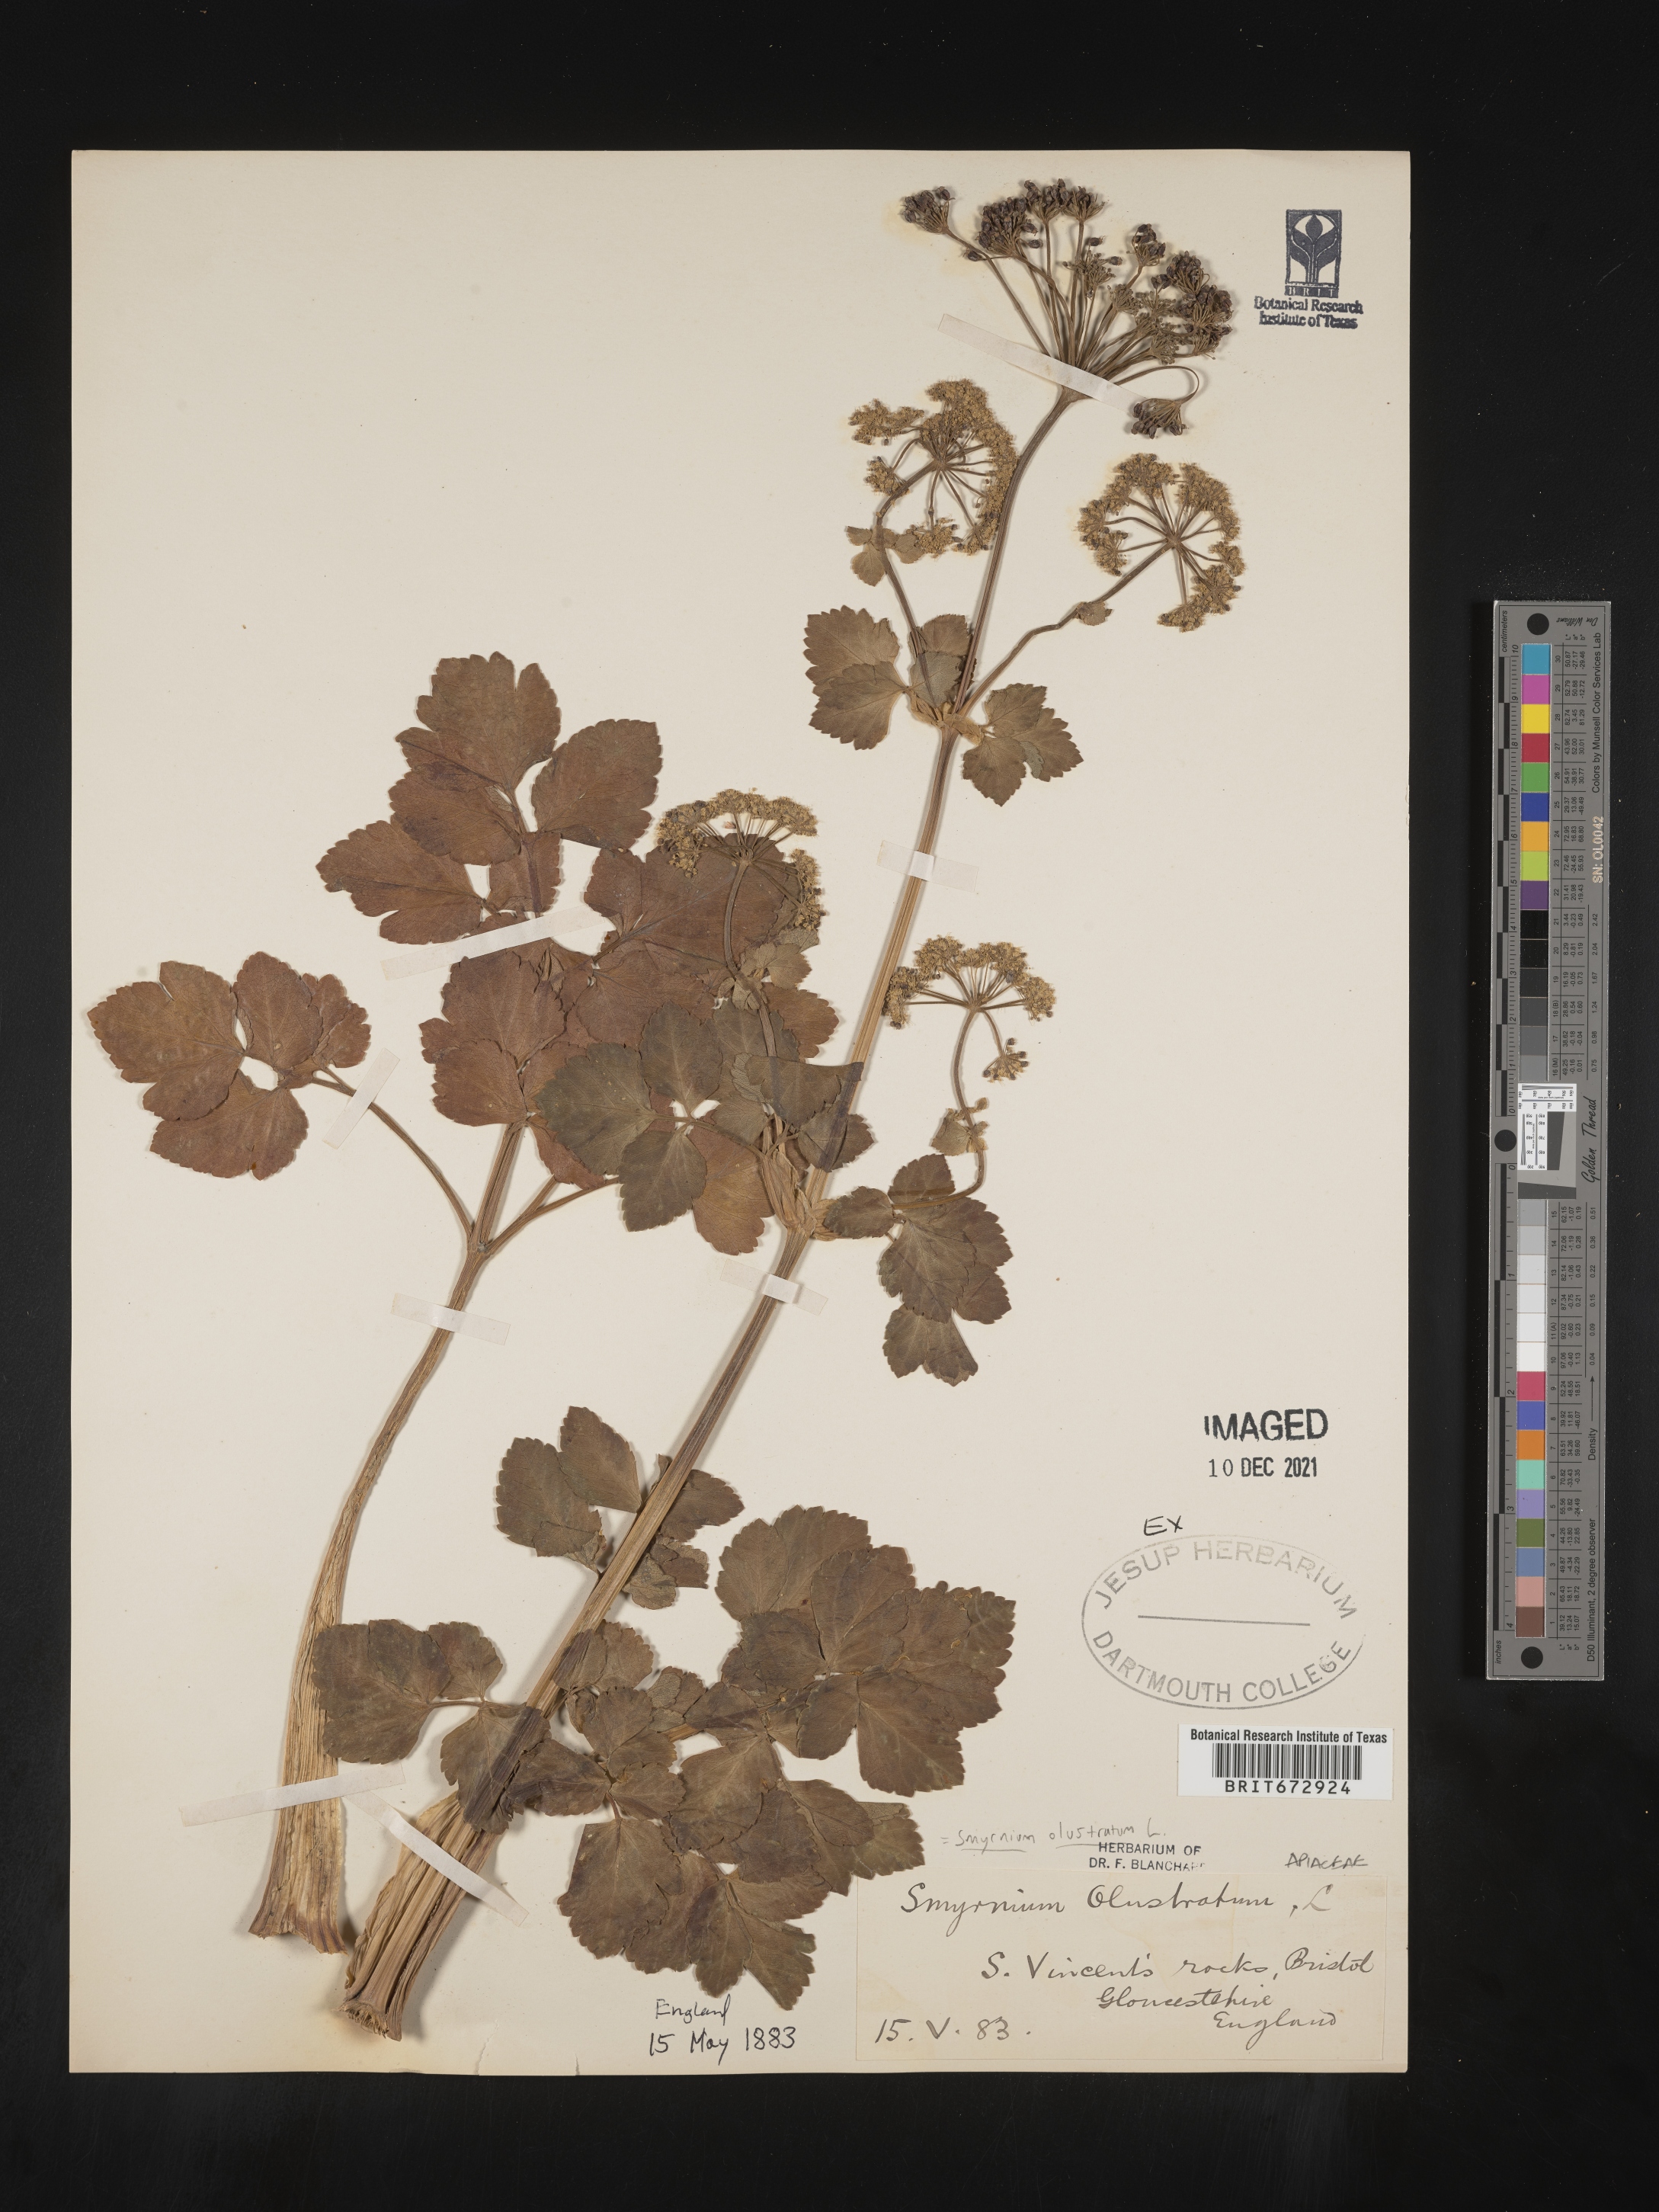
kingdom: Plantae
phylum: Tracheophyta
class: Magnoliopsida
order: Apiales
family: Apiaceae
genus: Smyrnium
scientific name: Smyrnium
